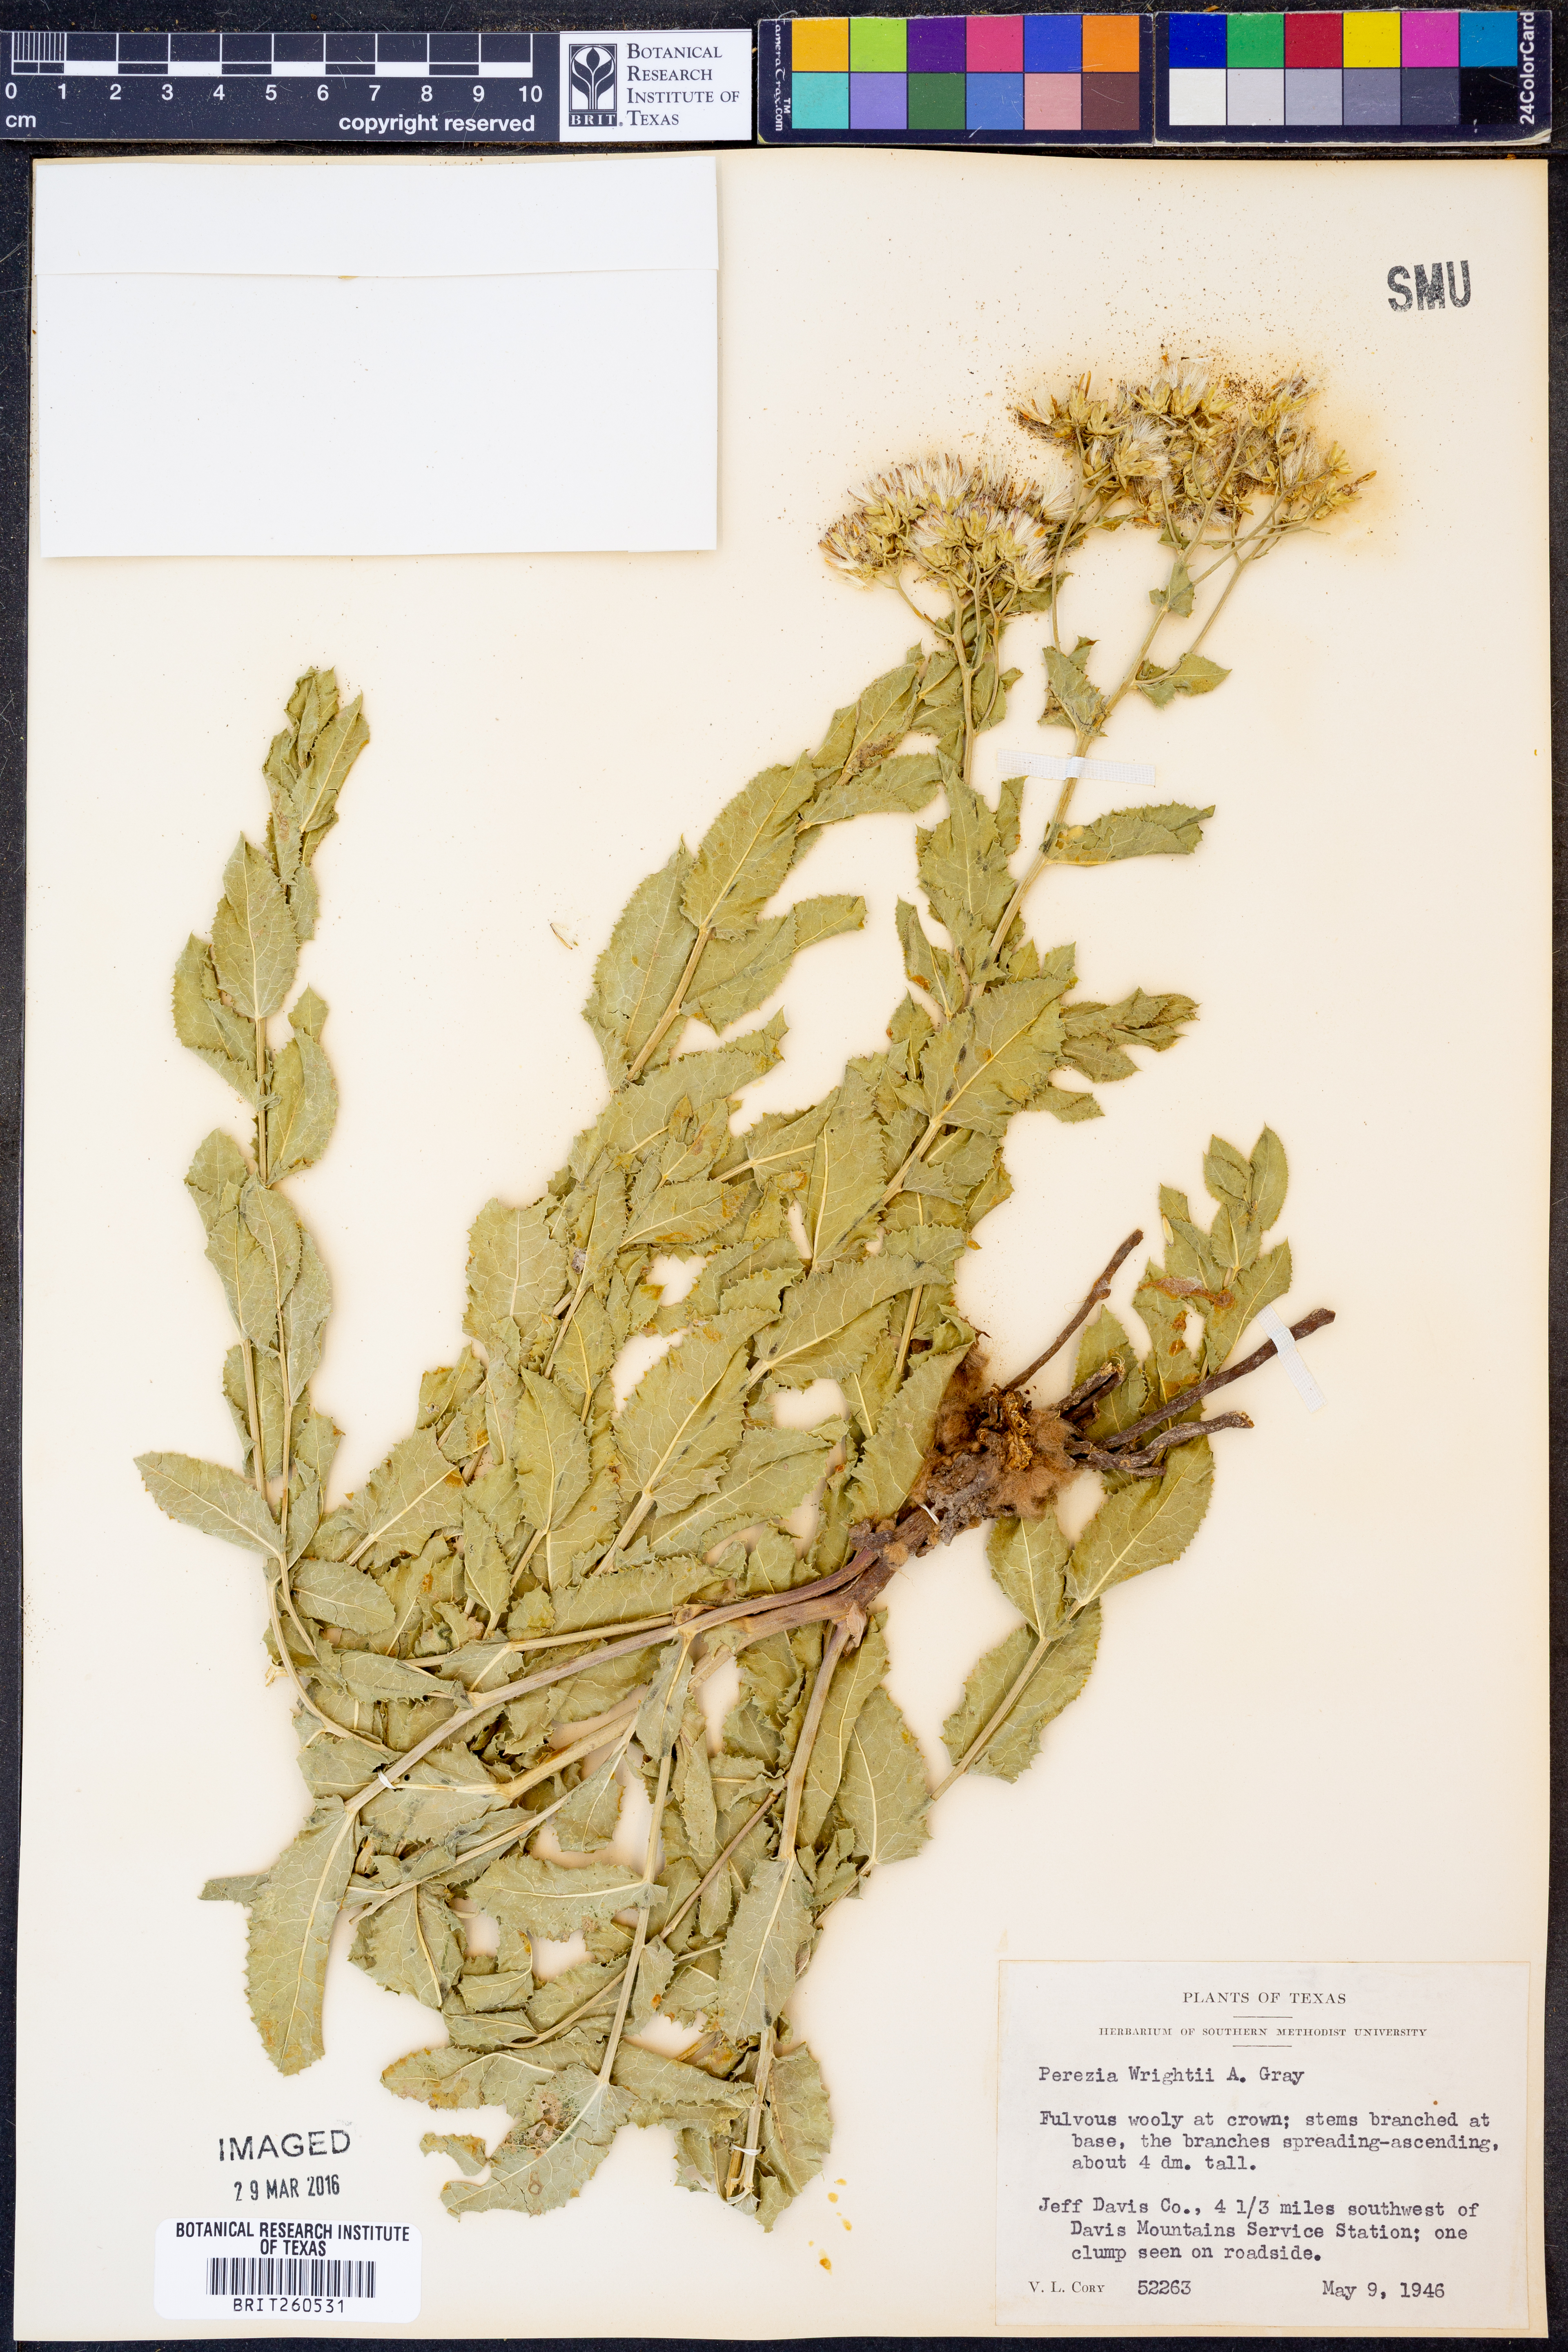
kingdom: Plantae
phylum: Tracheophyta
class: Magnoliopsida
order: Asterales
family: Asteraceae
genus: Acourtia
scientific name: Acourtia wrightii
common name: Brownfoot
